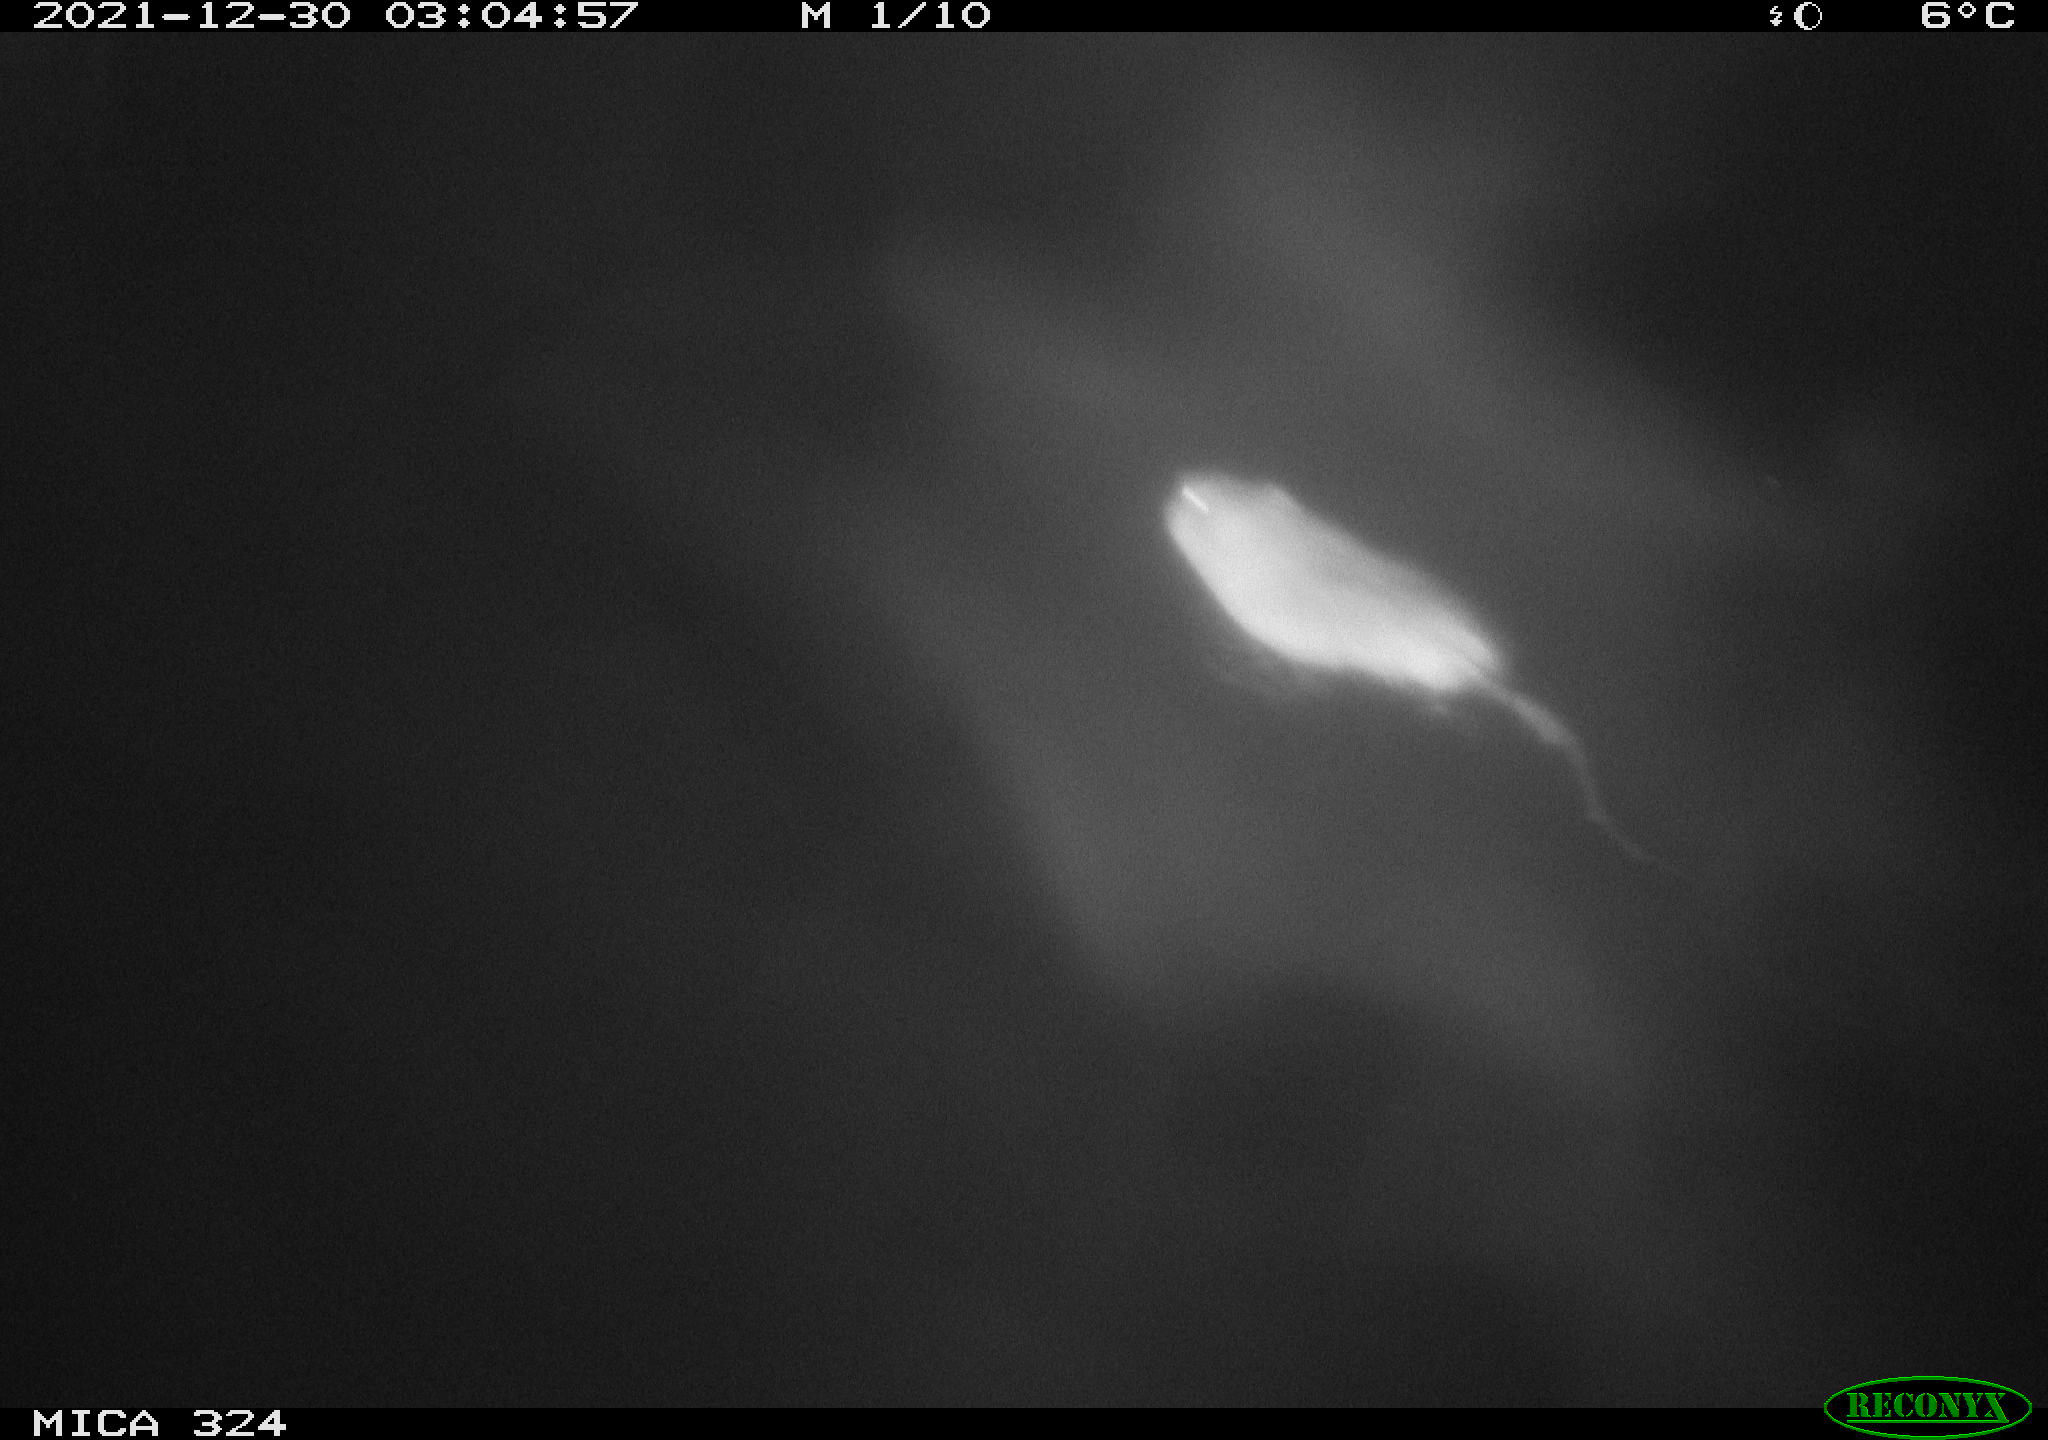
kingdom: Animalia
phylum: Chordata
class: Mammalia
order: Rodentia
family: Cricetidae
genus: Ondatra
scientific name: Ondatra zibethicus
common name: Muskrat
